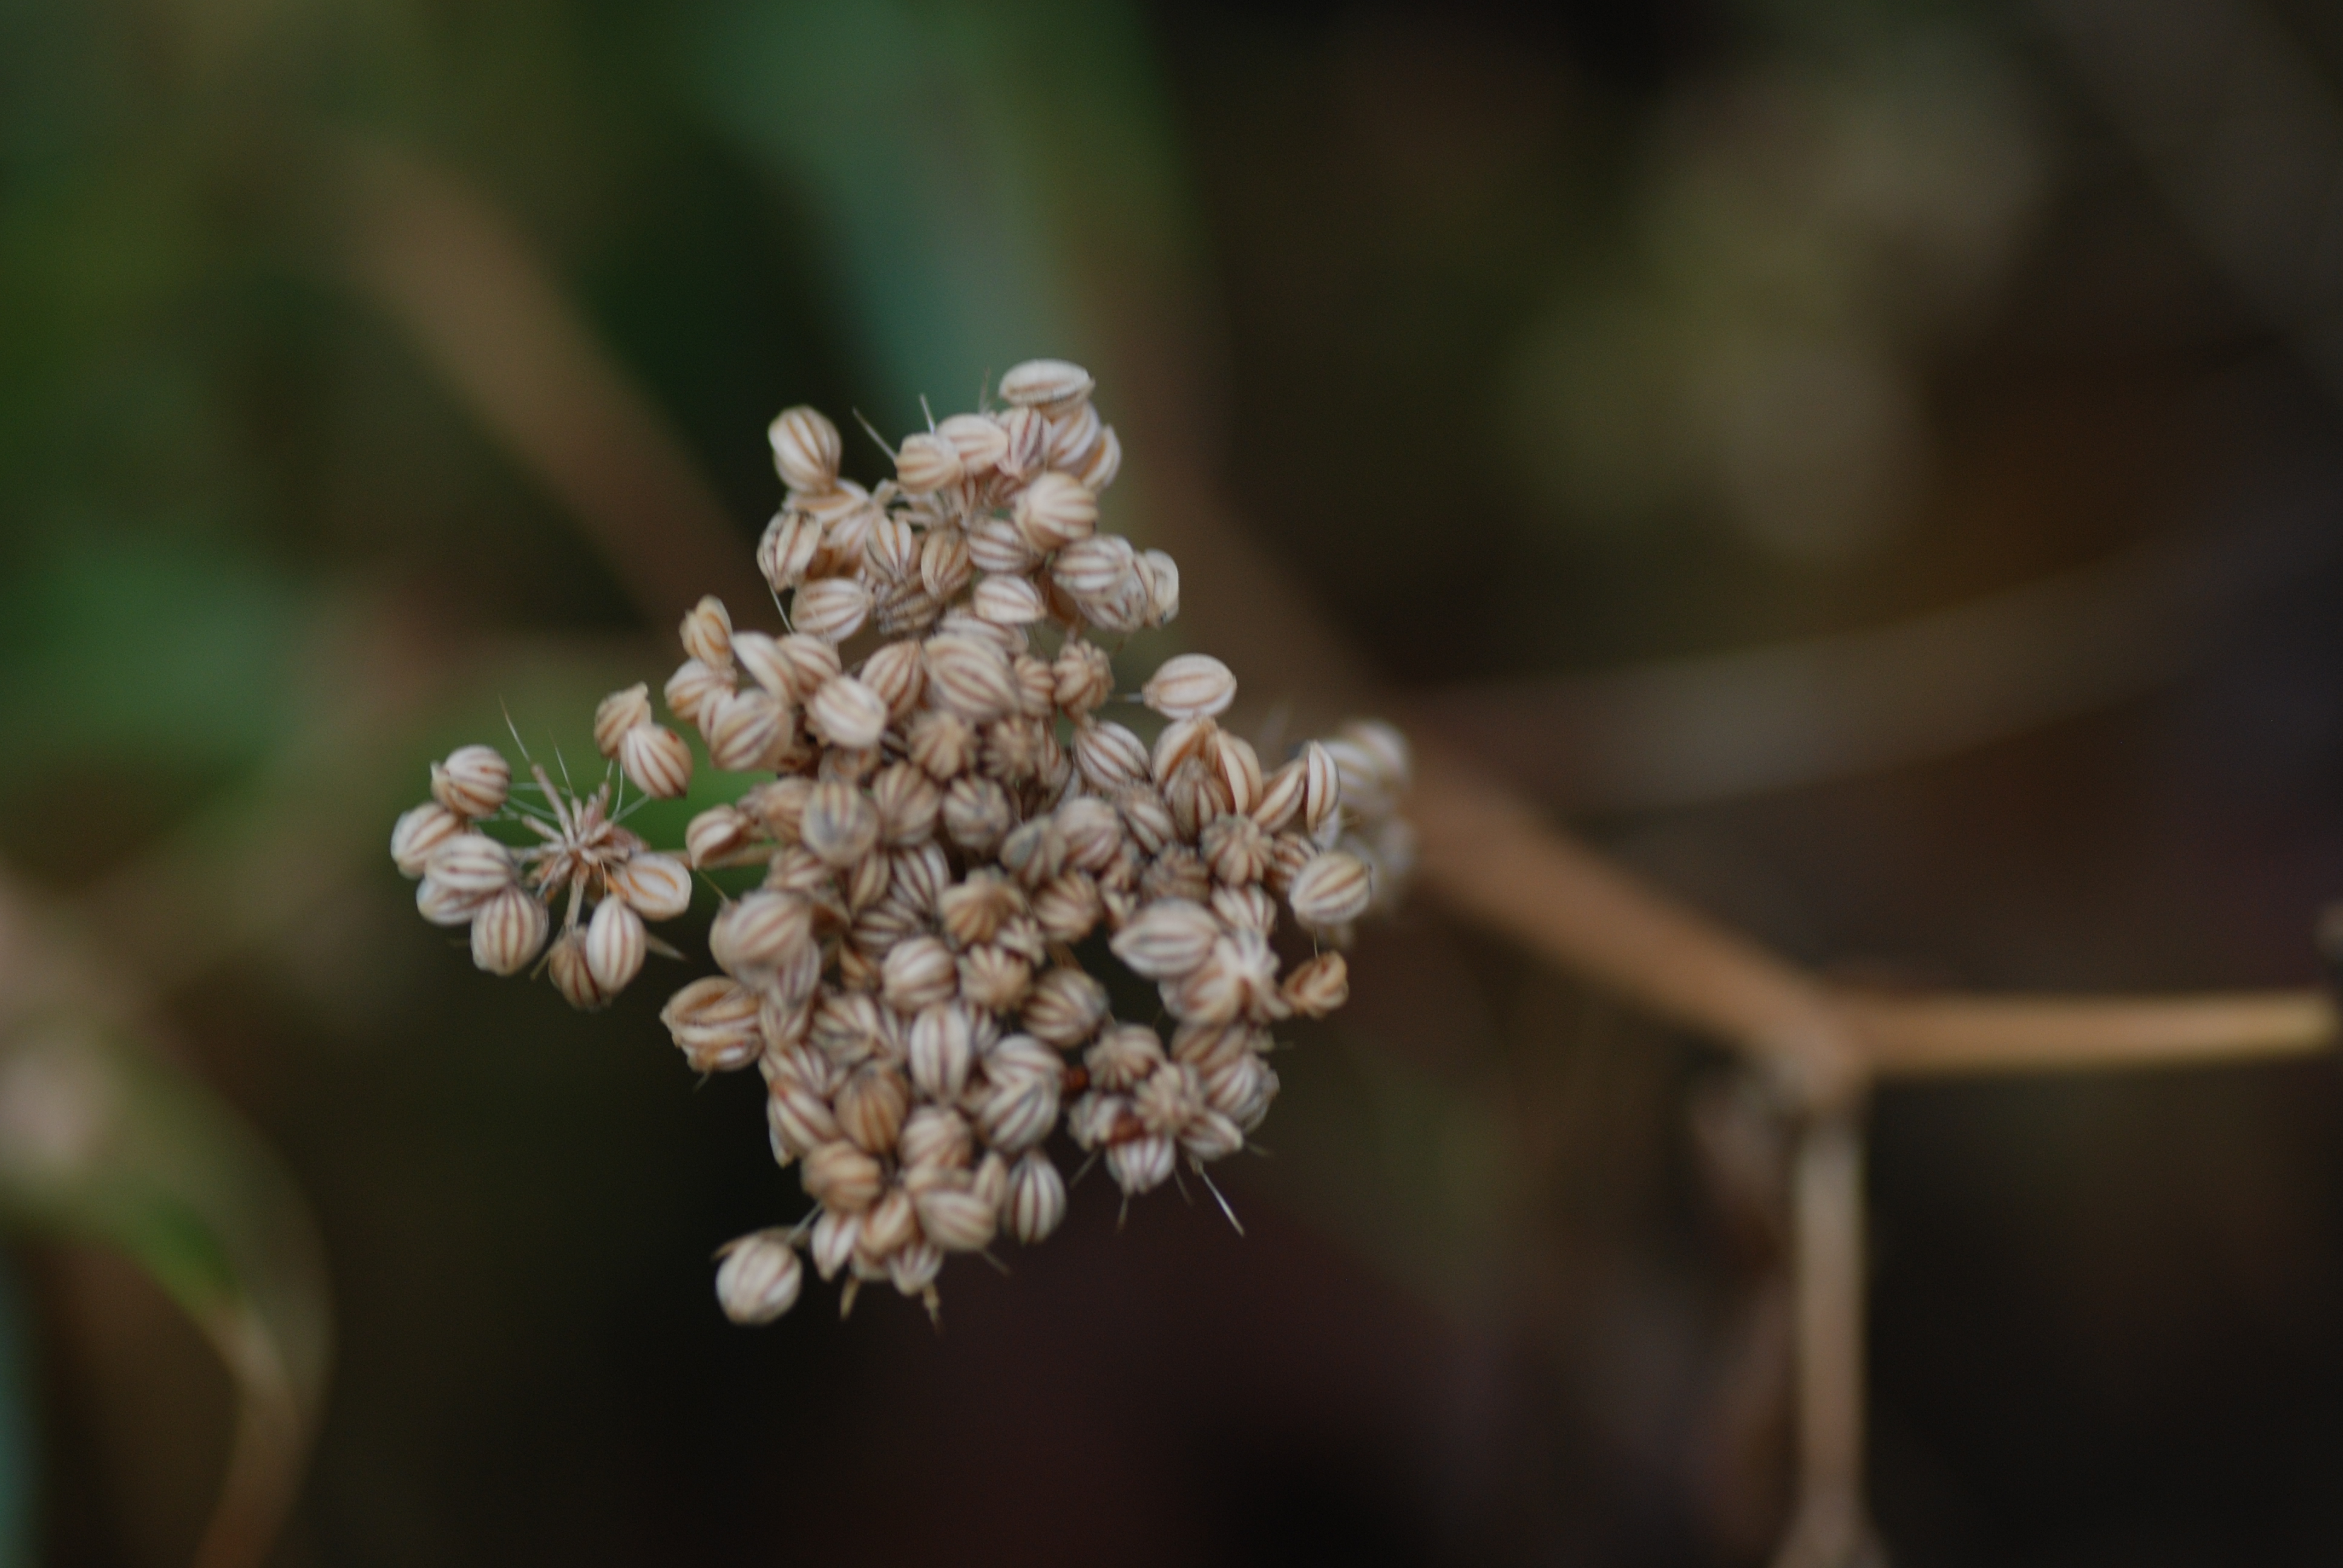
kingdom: Plantae
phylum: Tracheophyta
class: Magnoliopsida
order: Apiales
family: Apiaceae
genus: Aethusa
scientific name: Aethusa cynapium
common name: Fool's parsley
